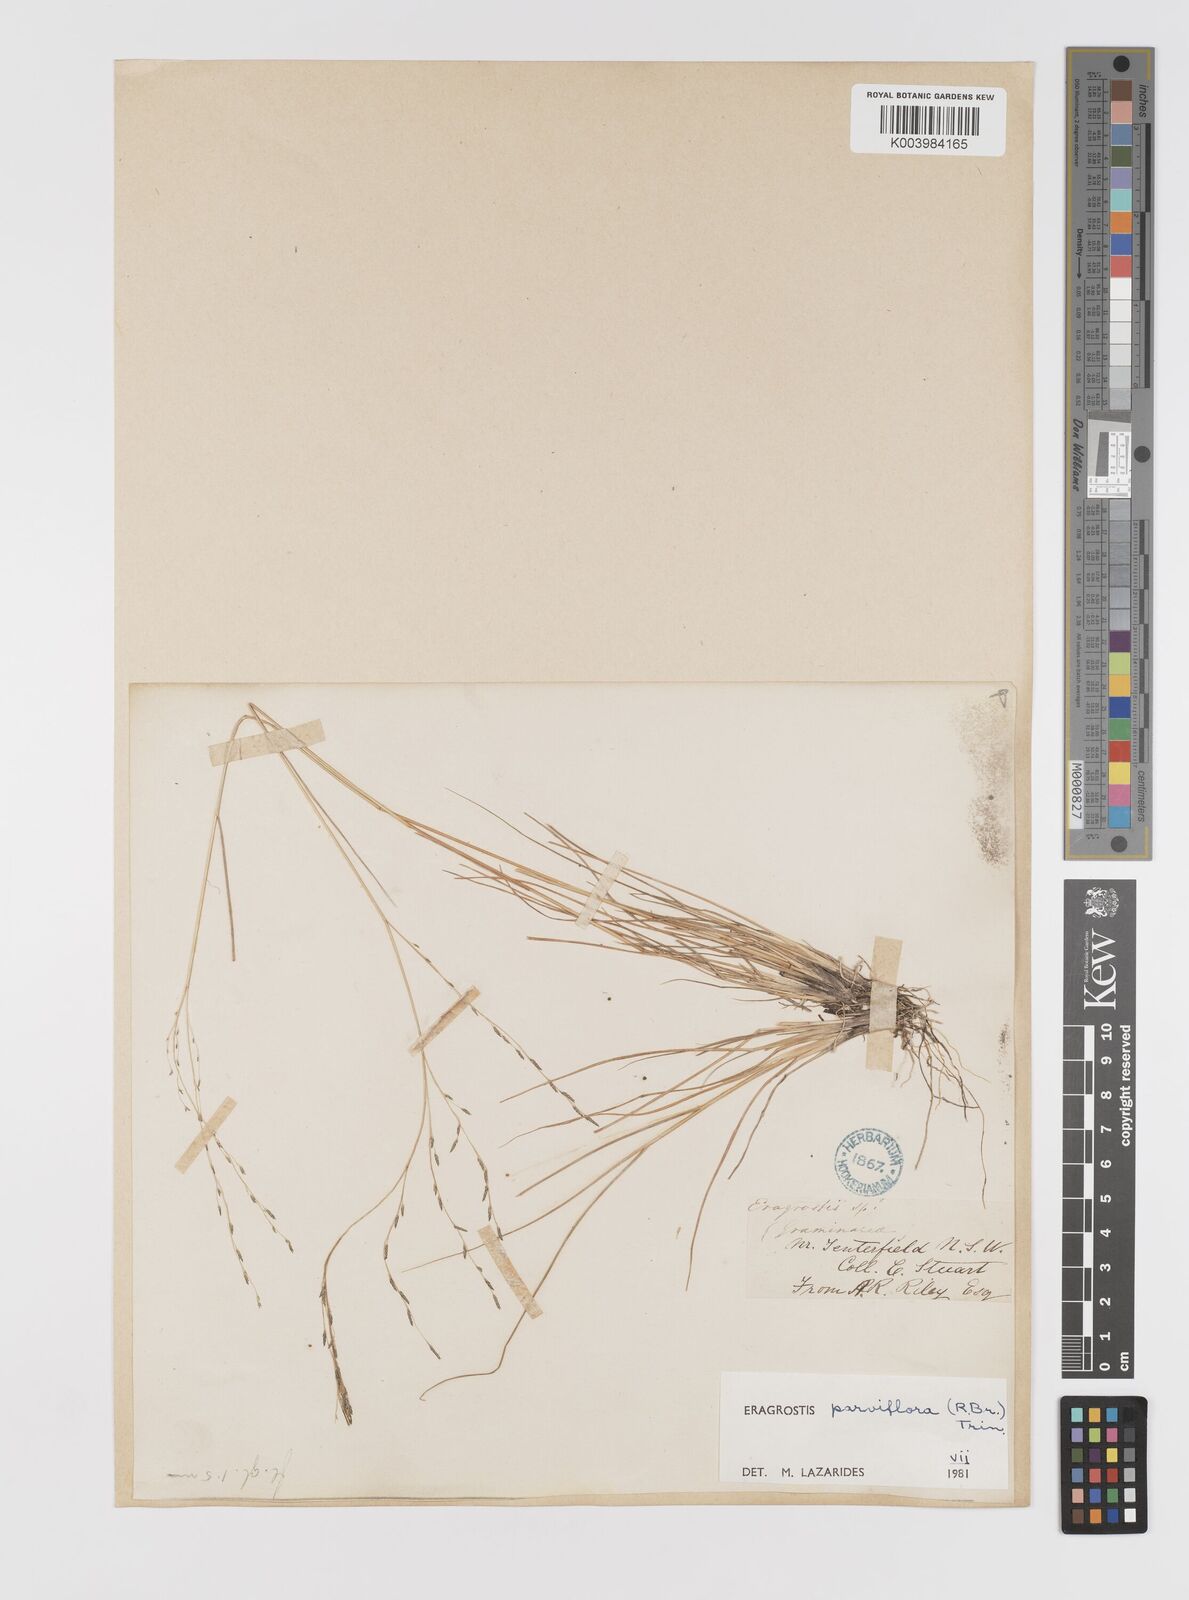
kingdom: Plantae
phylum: Tracheophyta
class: Liliopsida
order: Poales
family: Poaceae
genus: Eragrostis
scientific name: Eragrostis parviflora
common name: Weeping love-grass
